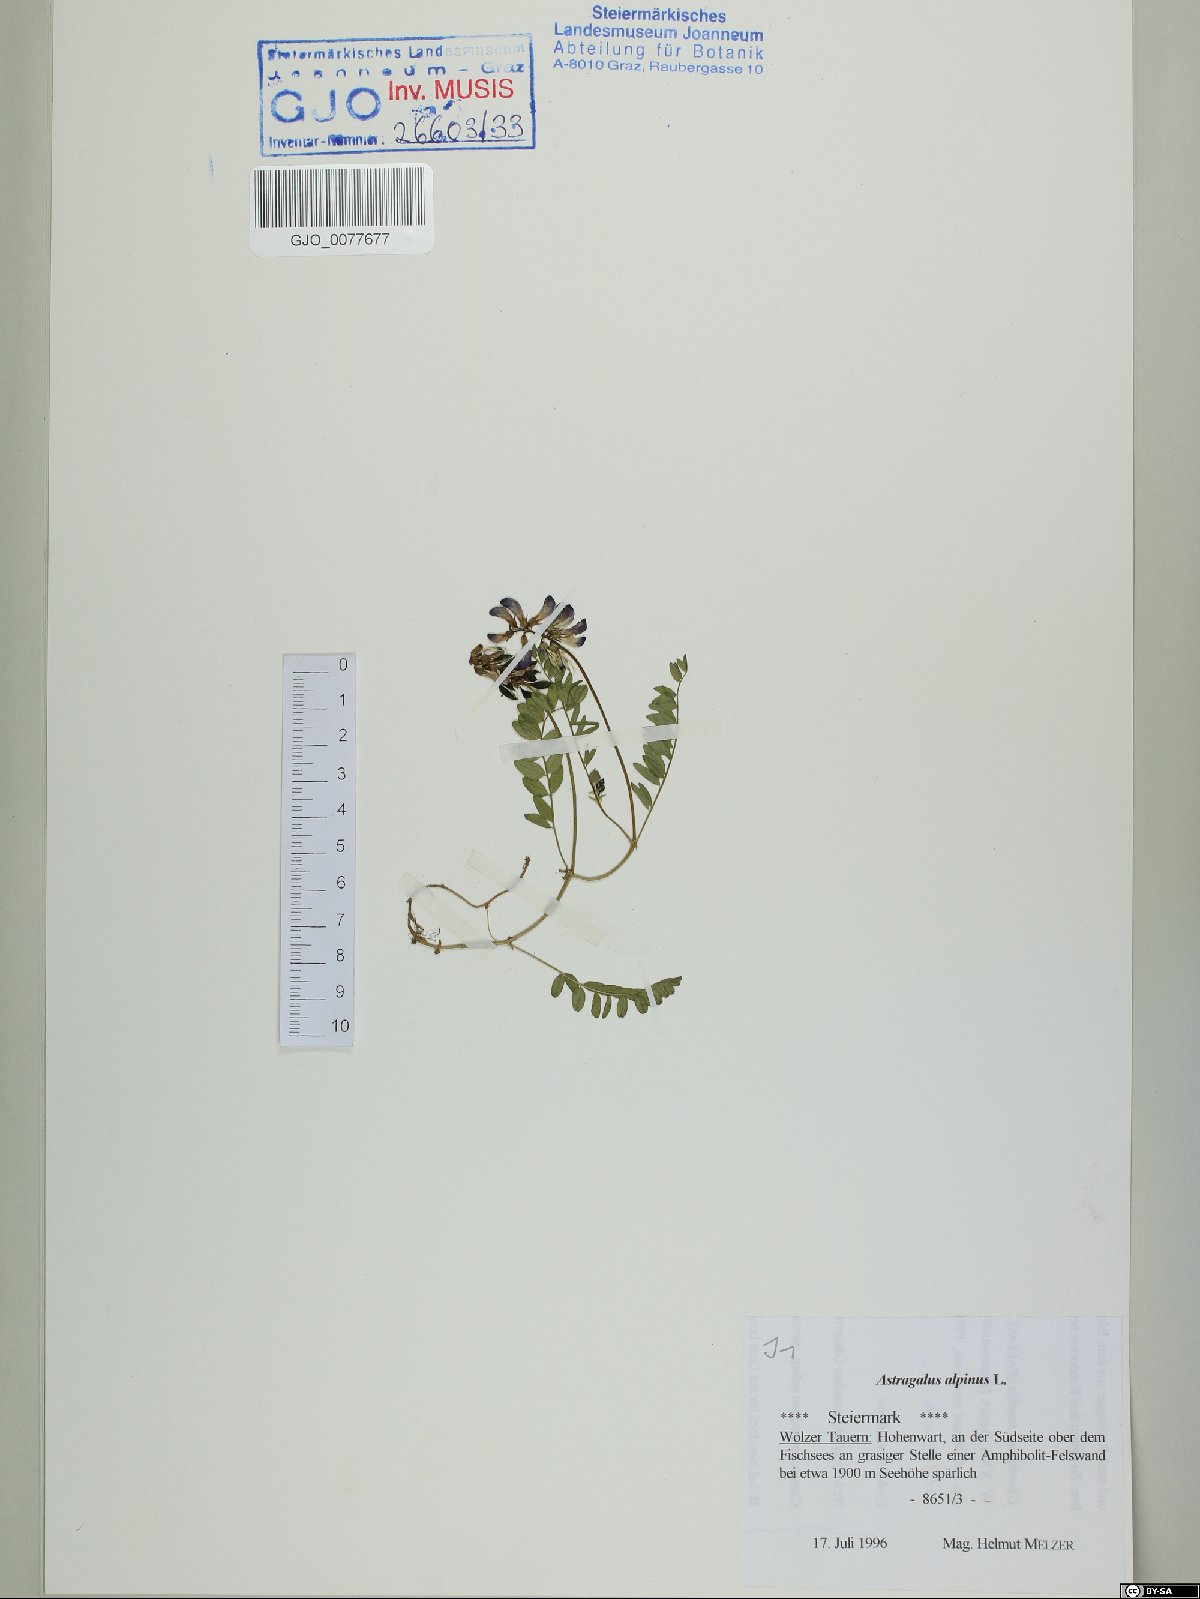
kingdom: Plantae
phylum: Tracheophyta
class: Magnoliopsida
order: Fabales
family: Fabaceae
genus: Astragalus
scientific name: Astragalus alpinus
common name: Alpine milk-vetch
